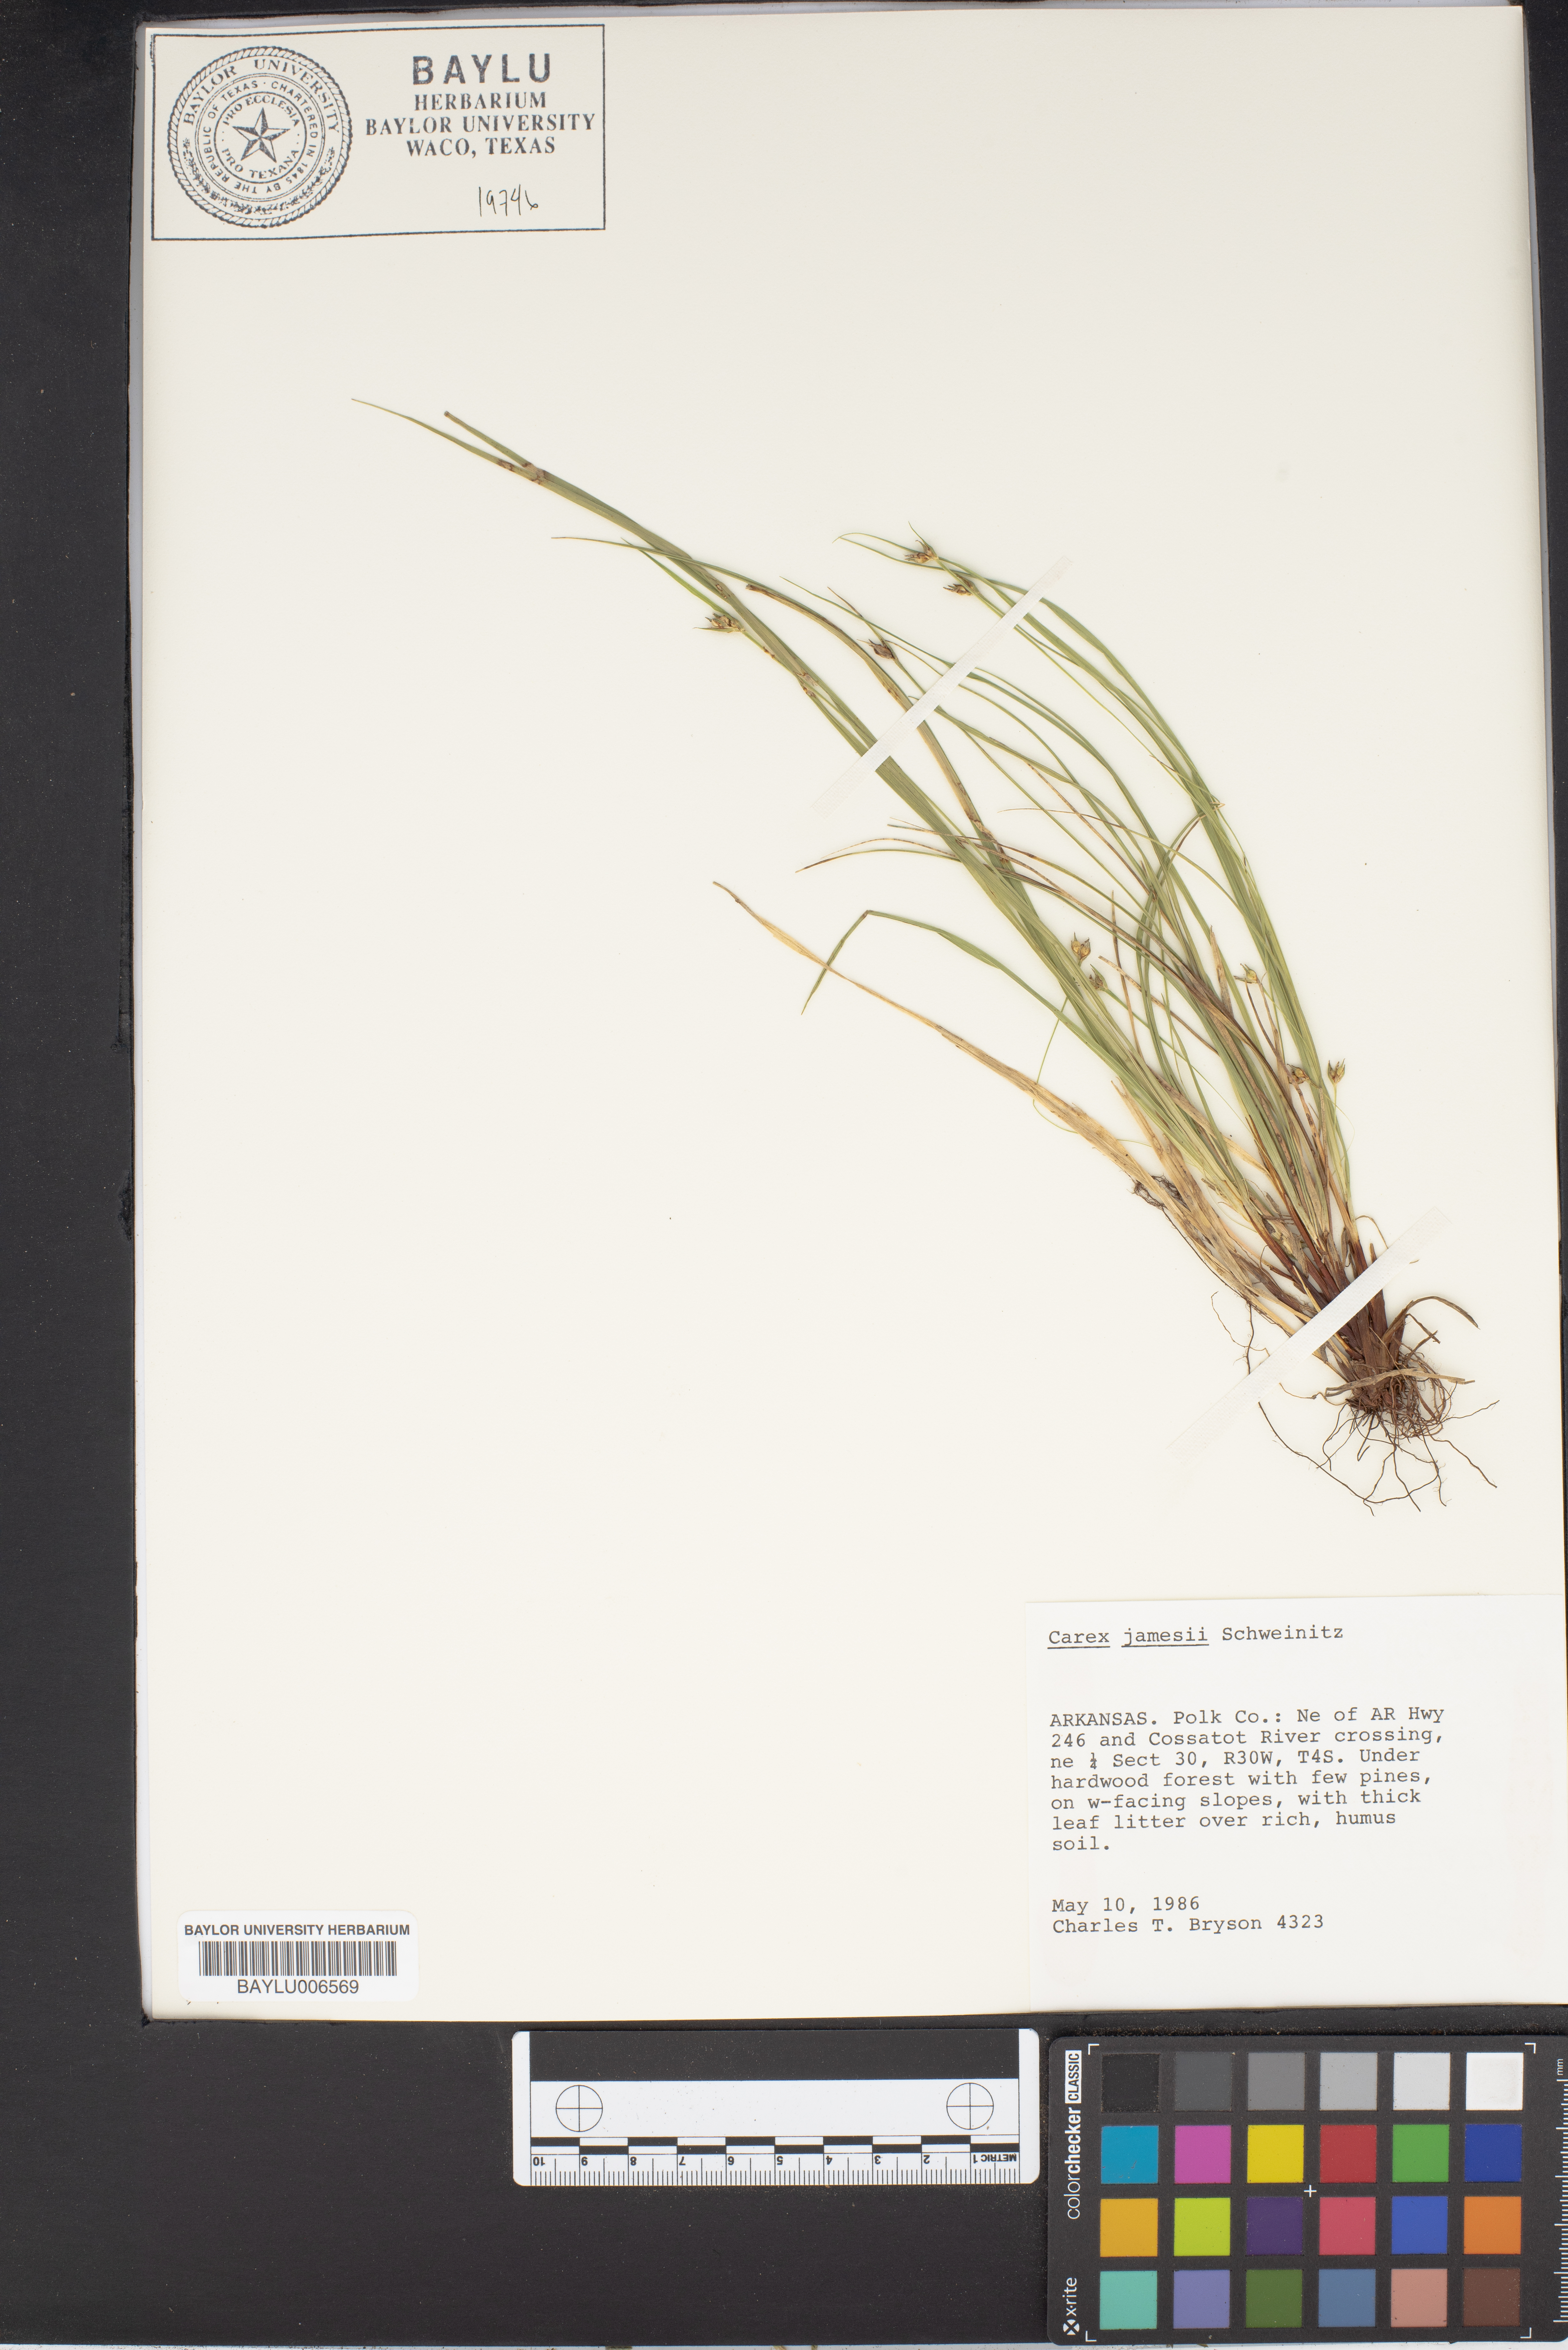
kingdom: Plantae
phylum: Tracheophyta
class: Liliopsida
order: Poales
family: Cyperaceae
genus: Carex
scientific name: Carex jamesii
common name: Grass sedge
